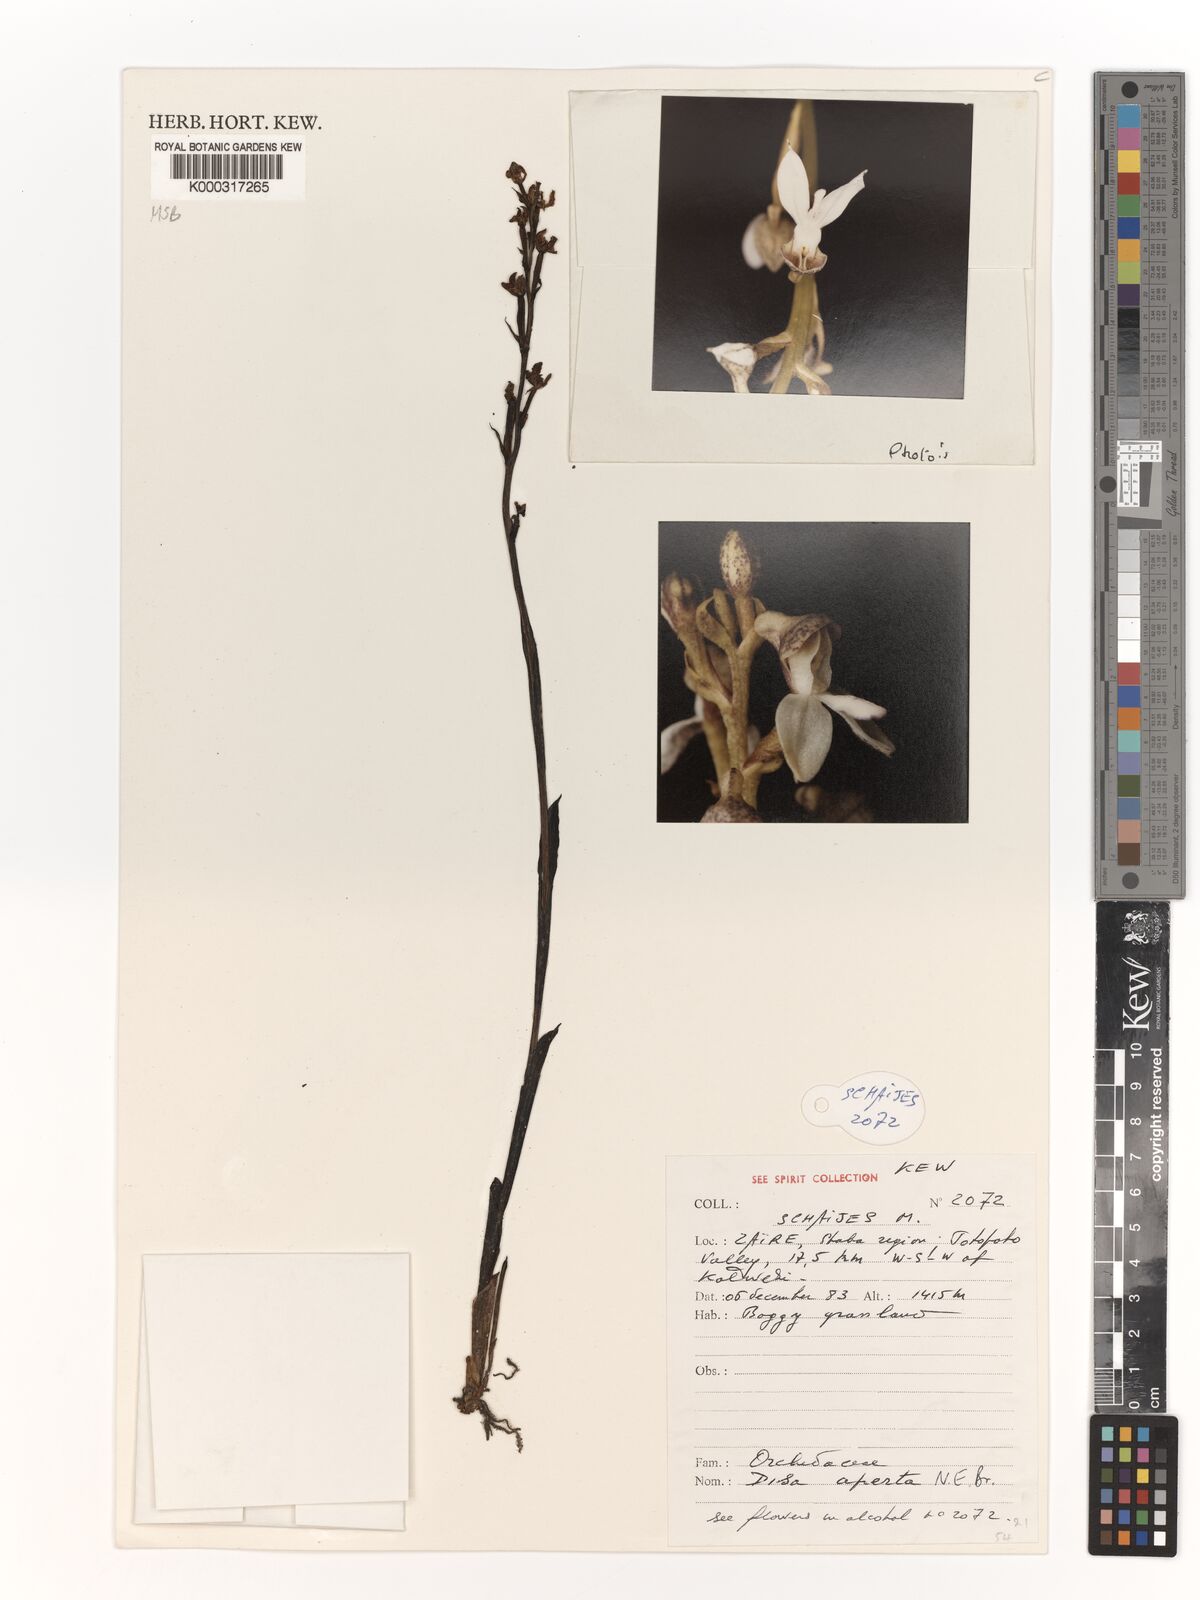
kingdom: Plantae
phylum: Tracheophyta
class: Liliopsida
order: Asparagales
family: Orchidaceae
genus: Disa
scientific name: Disa aperta
